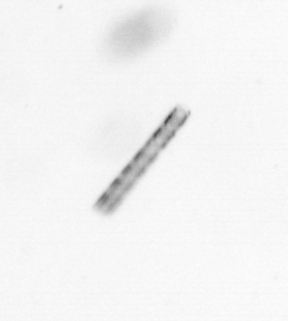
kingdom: Chromista
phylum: Ochrophyta
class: Bacillariophyceae
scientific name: Bacillariophyceae
